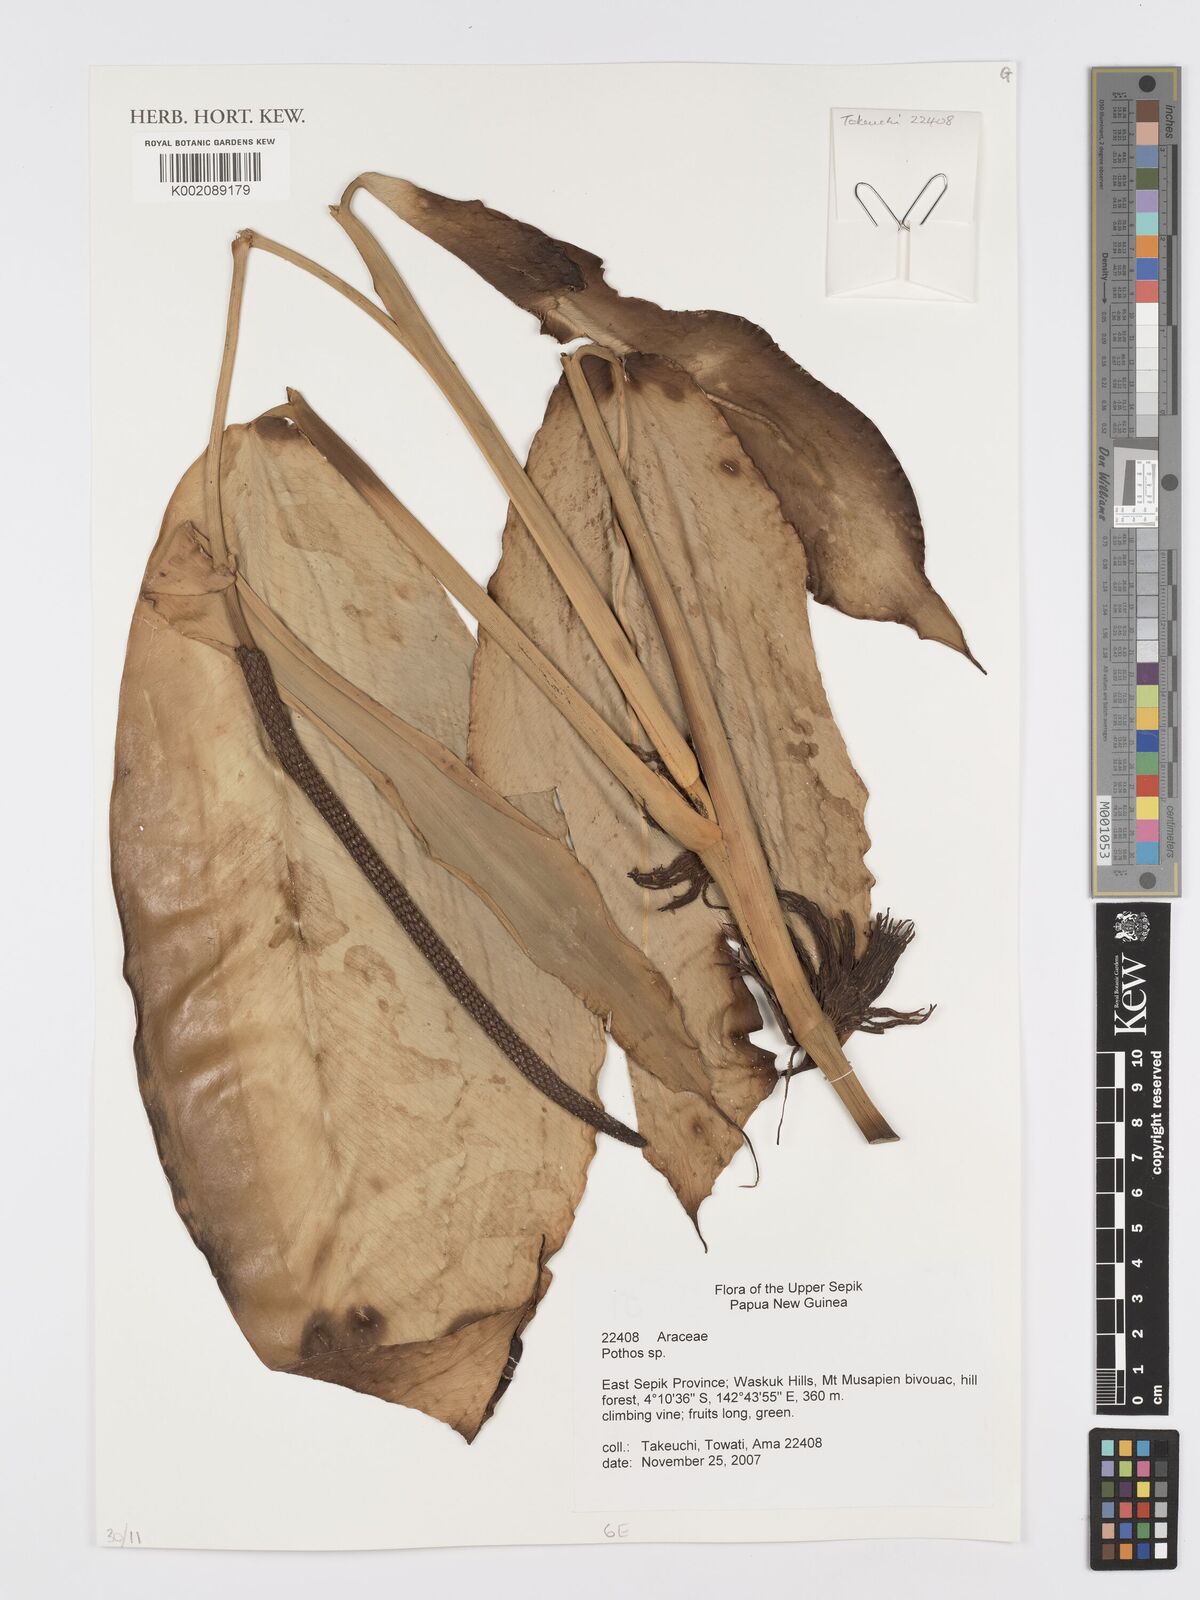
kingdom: Plantae
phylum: Tracheophyta
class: Liliopsida
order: Alismatales
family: Araceae
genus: Pothos
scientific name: Pothos
